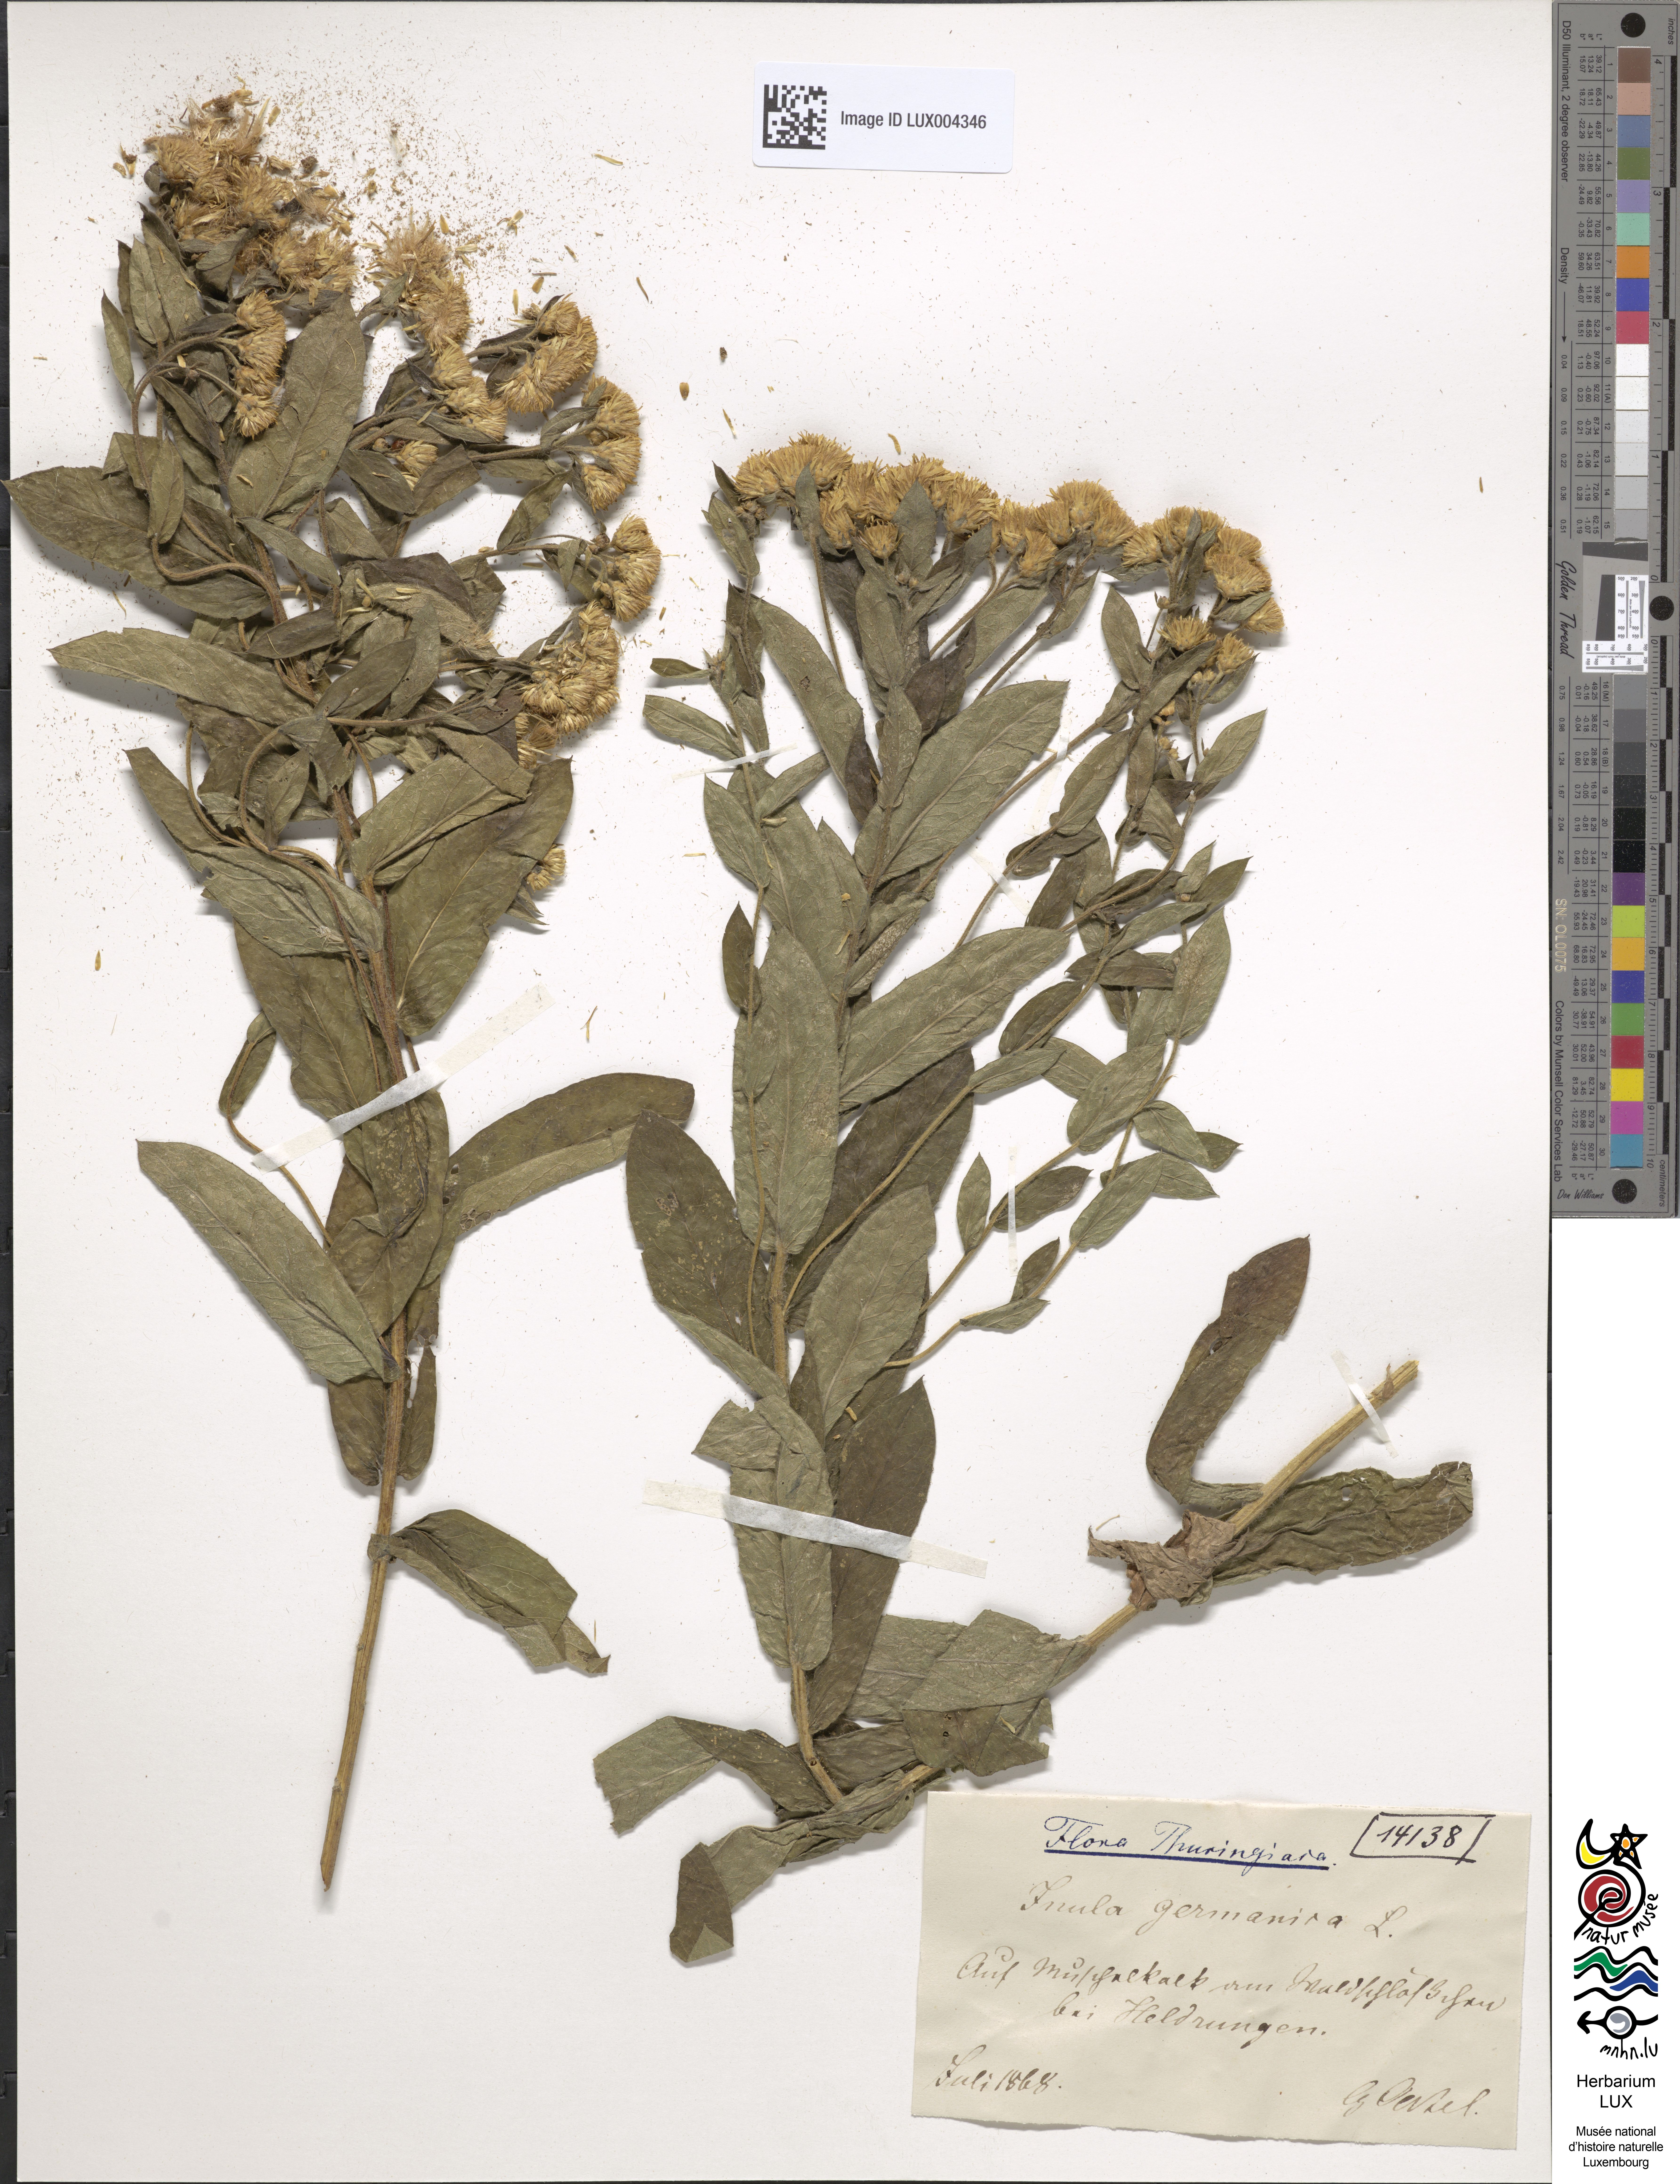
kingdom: Plantae
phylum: Tracheophyta
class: Magnoliopsida
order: Asterales
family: Asteraceae
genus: Pentanema
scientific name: Pentanema germanicum
